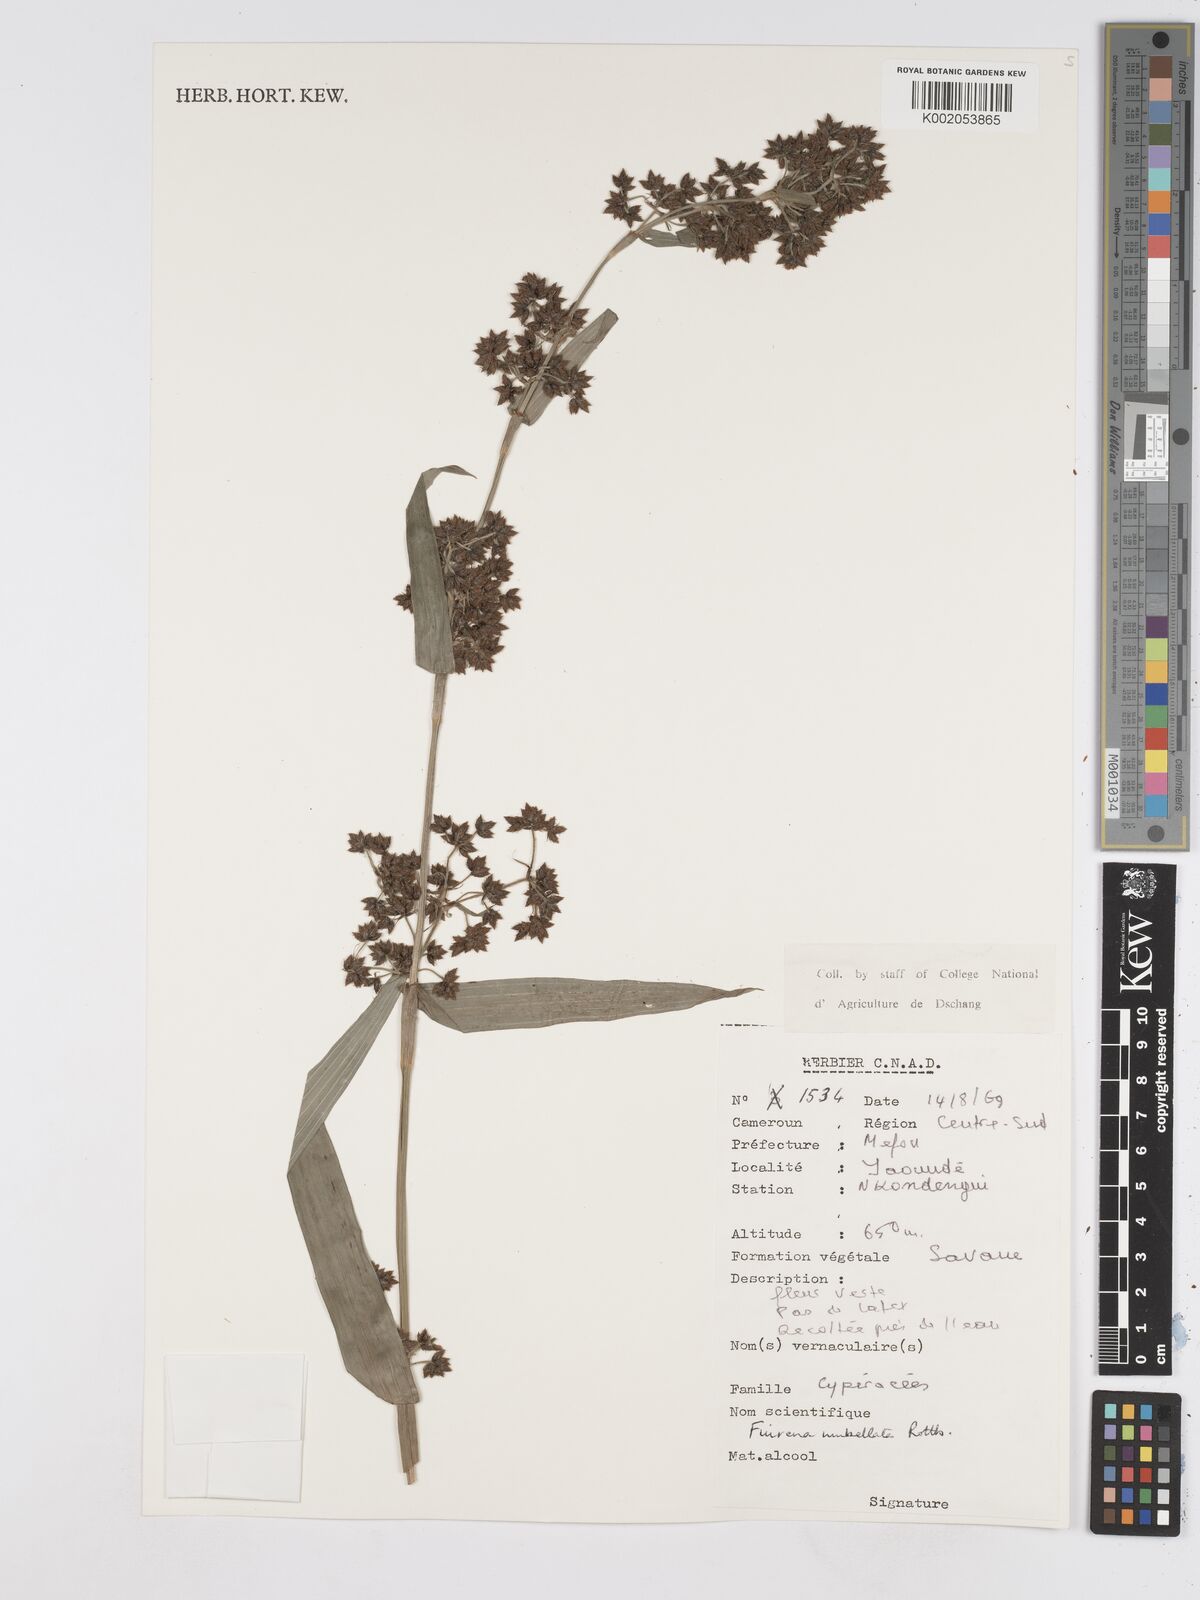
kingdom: Plantae
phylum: Tracheophyta
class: Liliopsida
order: Poales
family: Cyperaceae
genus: Fuirena
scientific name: Fuirena umbellata
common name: Yefen
